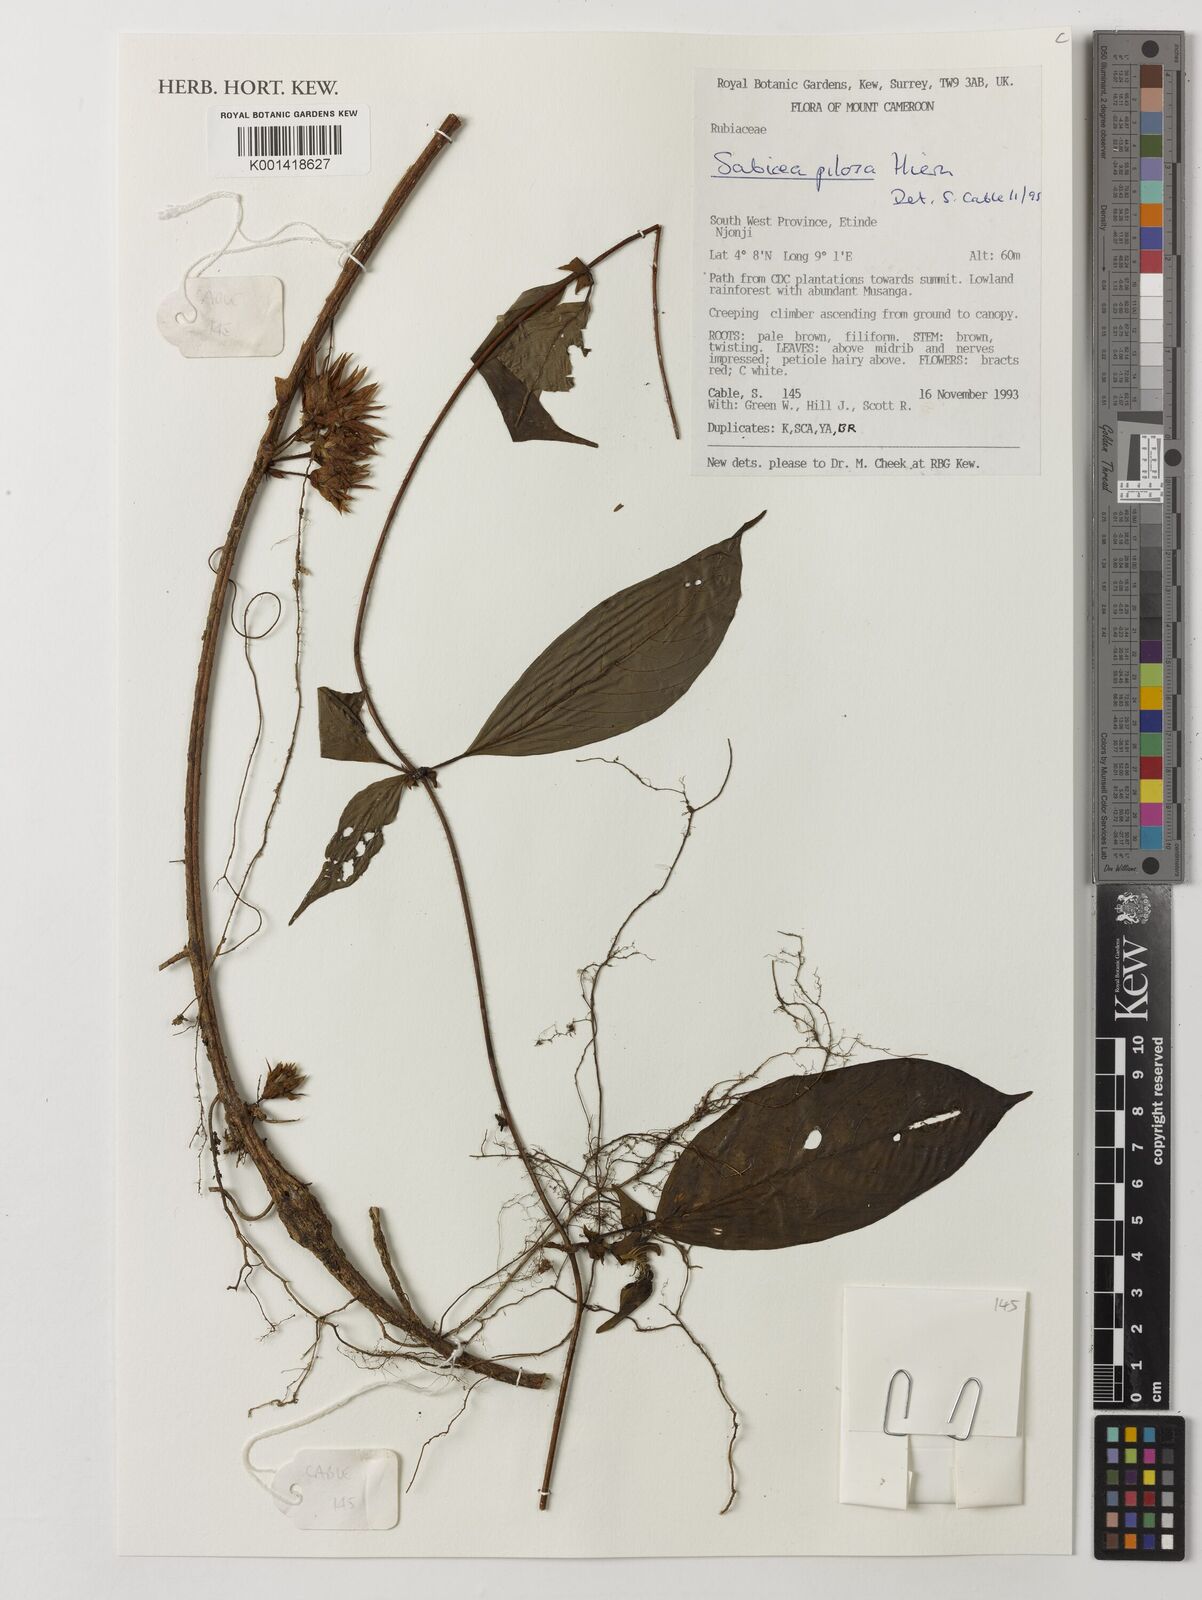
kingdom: Plantae
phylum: Tracheophyta
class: Magnoliopsida
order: Gentianales
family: Rubiaceae
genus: Sabicea
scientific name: Sabicea pilosa
